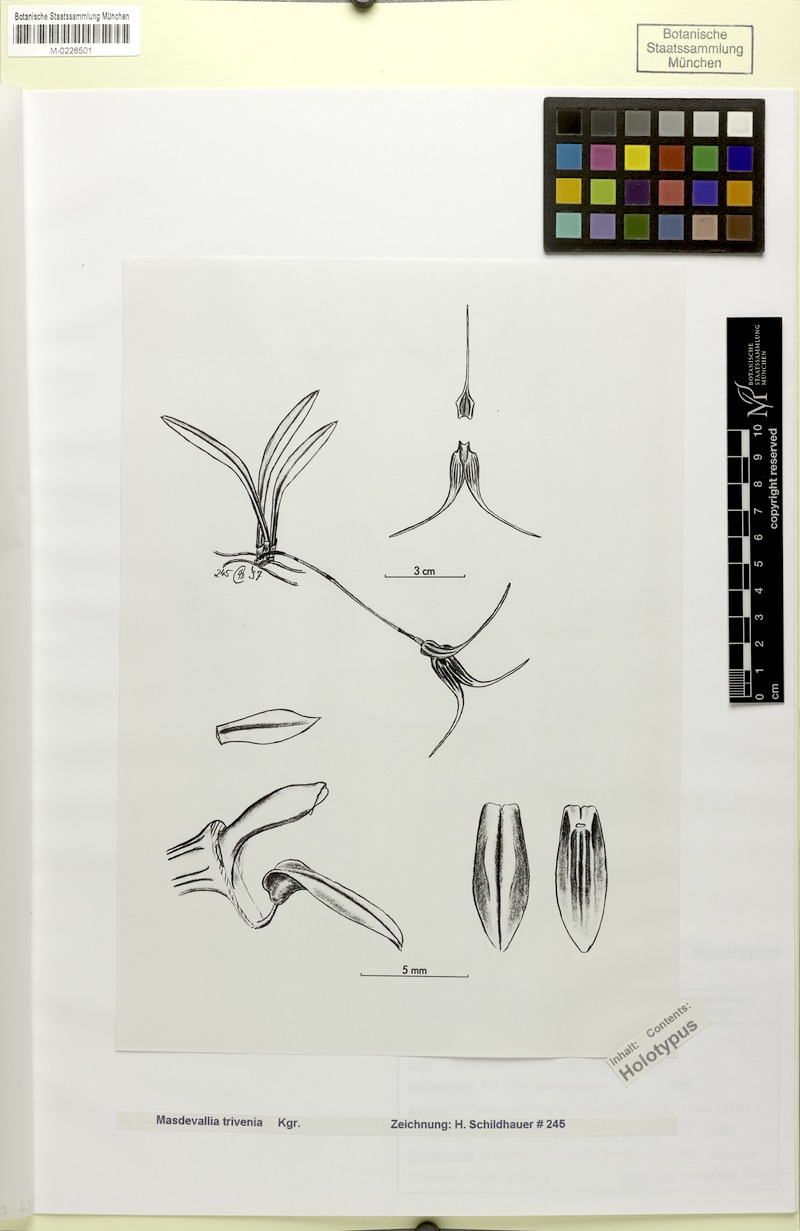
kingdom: Plantae
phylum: Tracheophyta
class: Liliopsida
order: Asparagales
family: Orchidaceae
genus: Masdevallia
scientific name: Masdevallia paquishae
